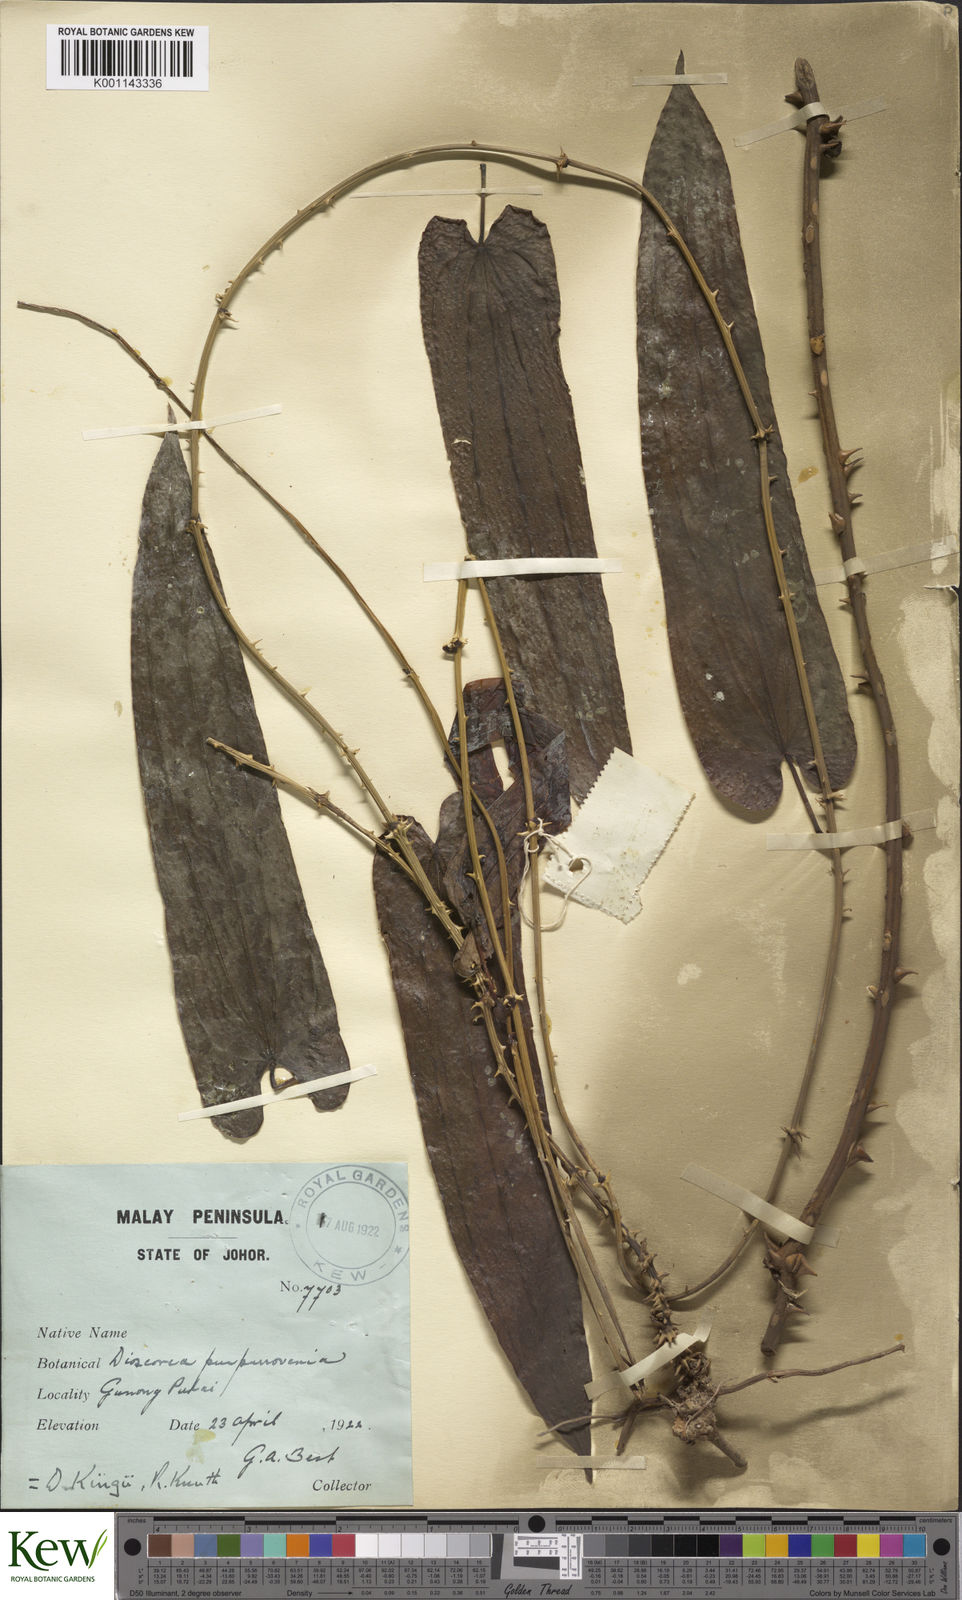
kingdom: Plantae
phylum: Tracheophyta
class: Liliopsida
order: Dioscoreales
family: Dioscoreaceae
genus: Dioscorea
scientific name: Dioscorea kingii
